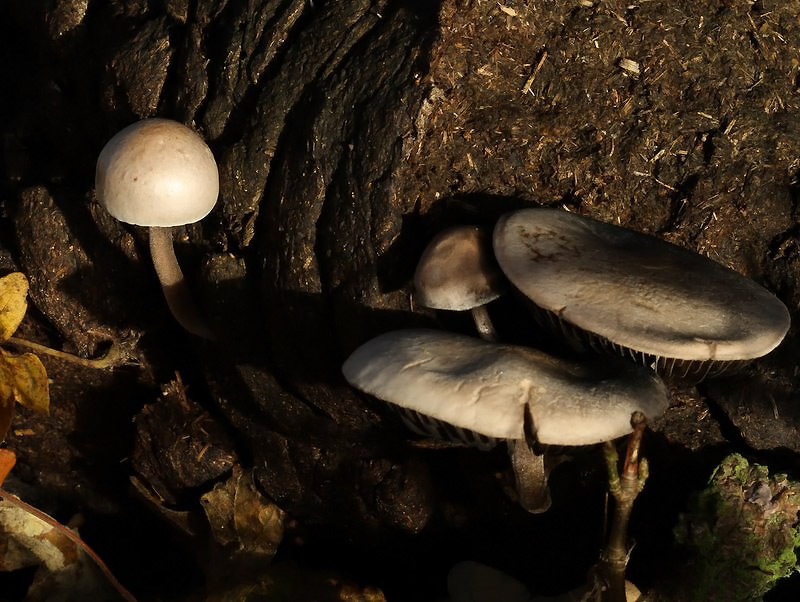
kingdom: Fungi
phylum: Basidiomycota
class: Agaricomycetes
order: Agaricales
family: Bolbitiaceae
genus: Panaeolus
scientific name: Panaeolus subfirmus
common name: fælled-glanshat
